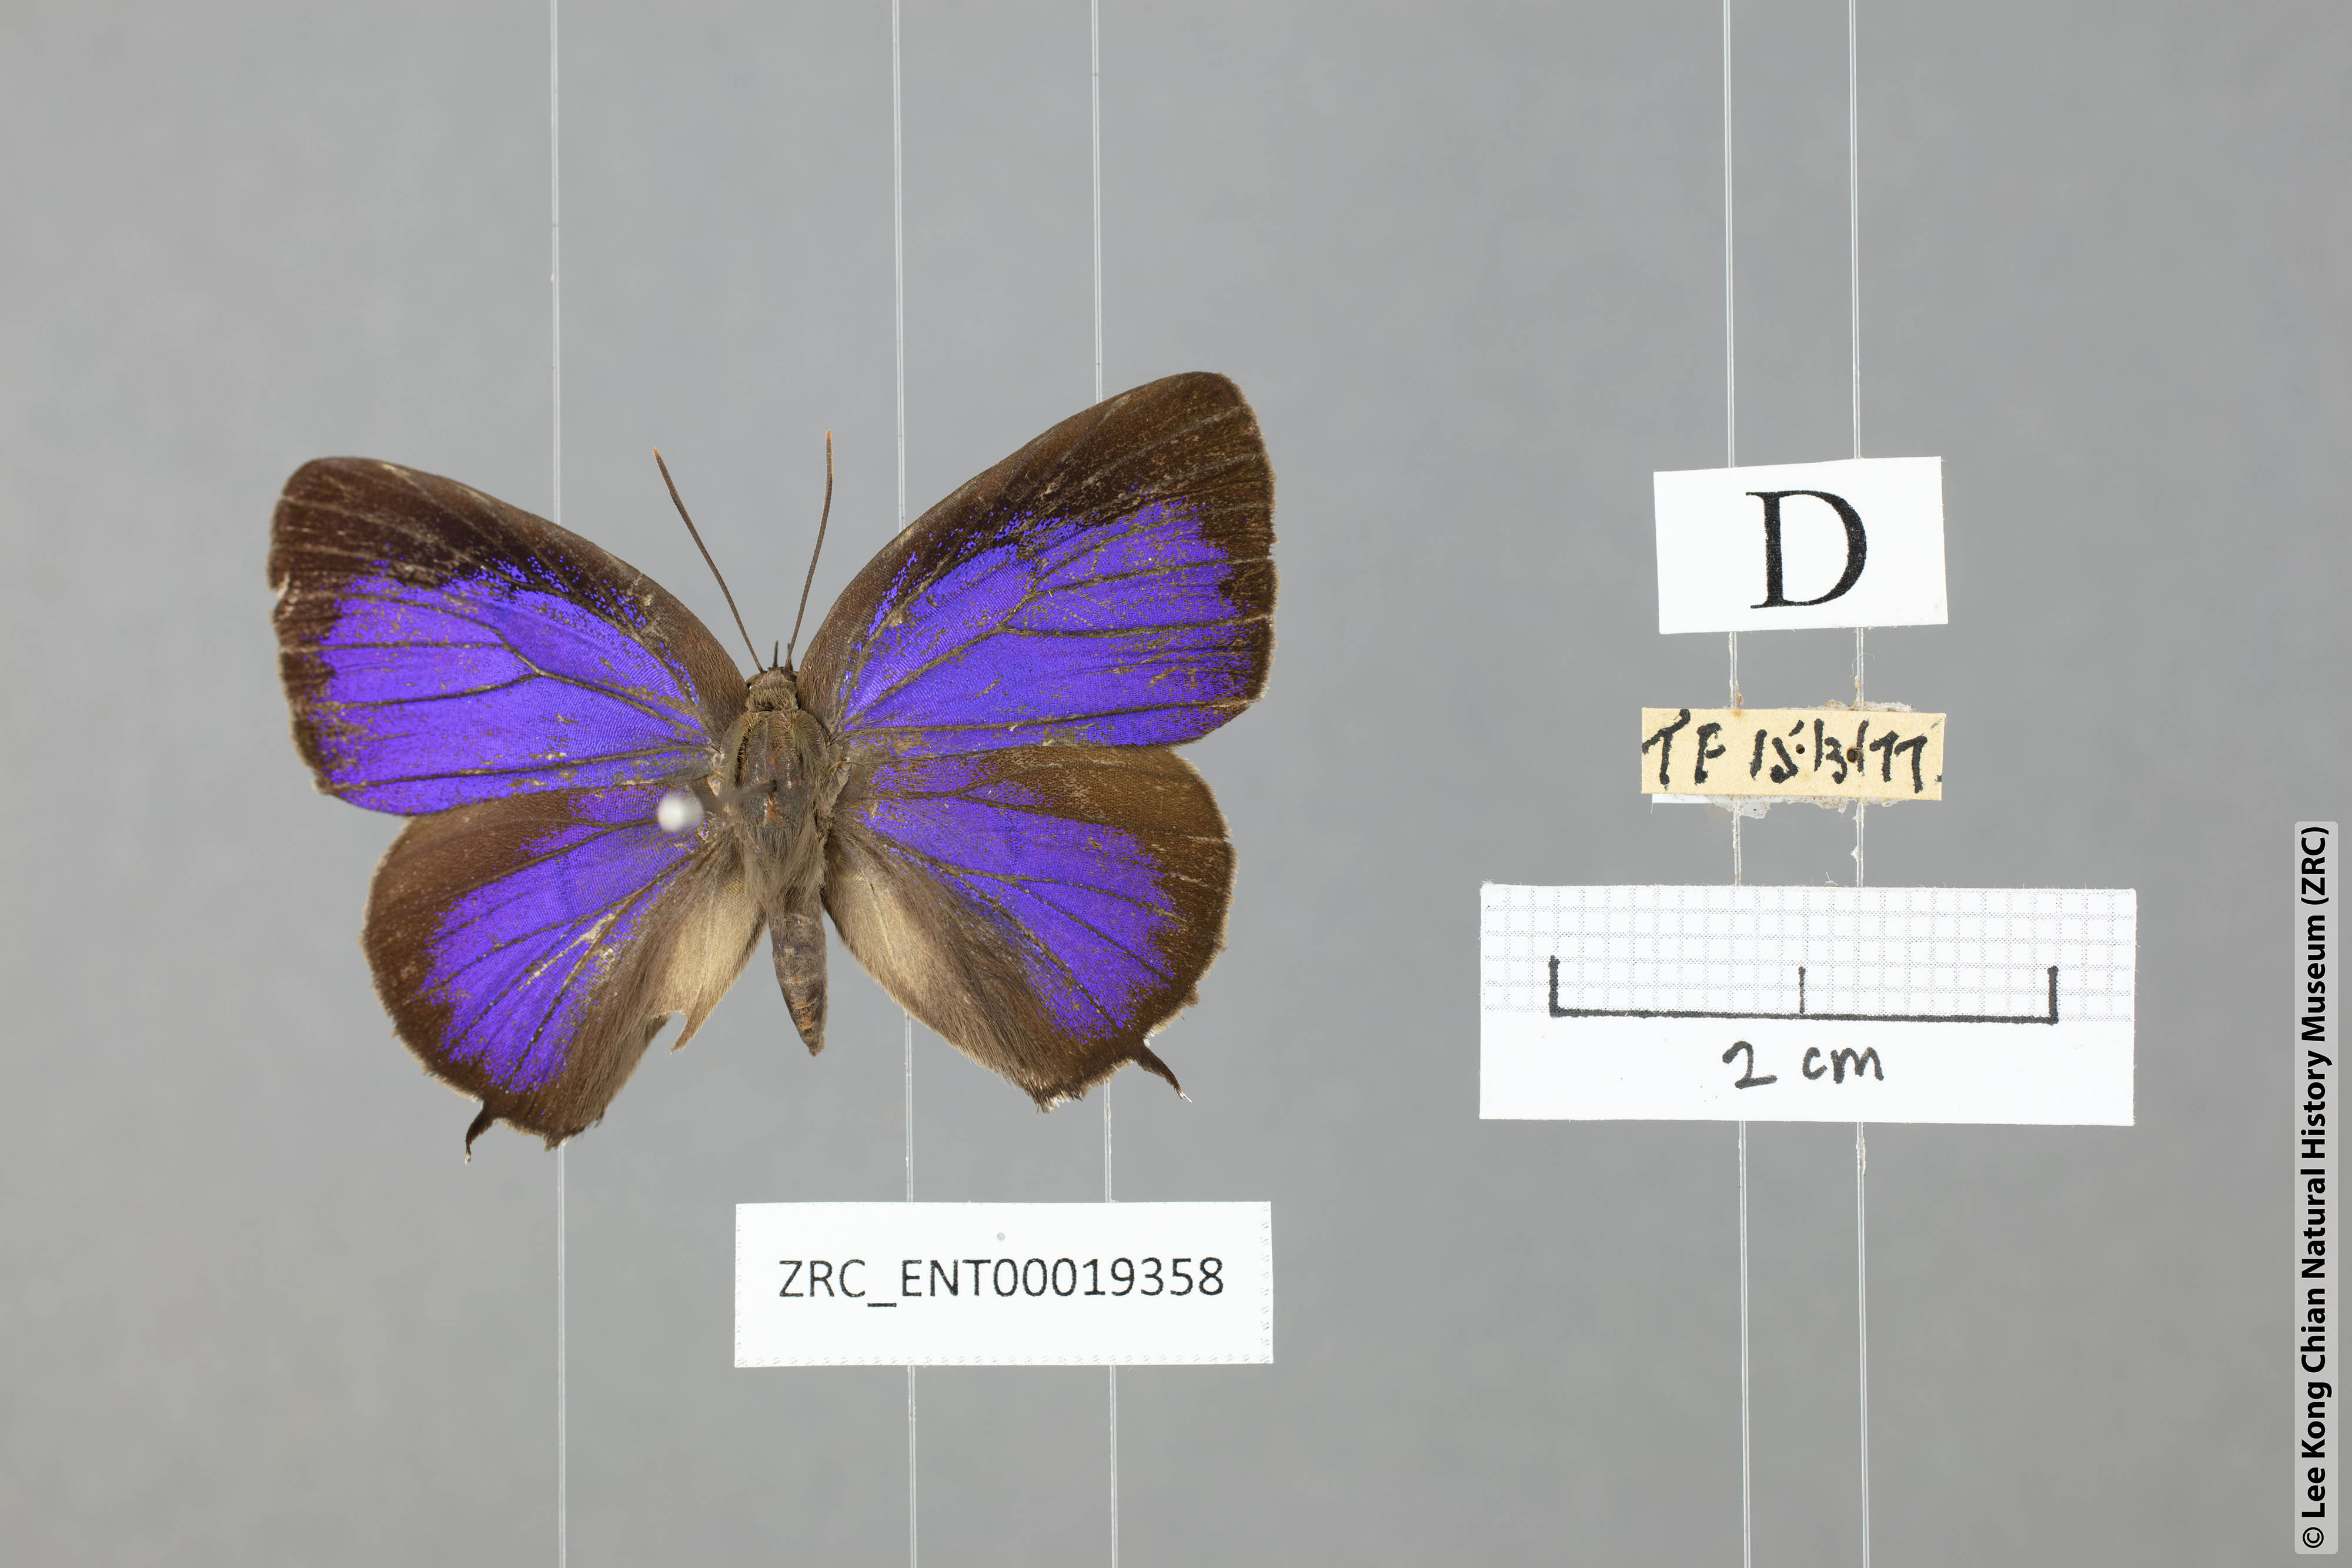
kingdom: Animalia
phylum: Arthropoda
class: Insecta
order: Lepidoptera
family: Lycaenidae
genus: Arhopala
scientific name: Arhopala corinda
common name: Ultramarine oakblue
